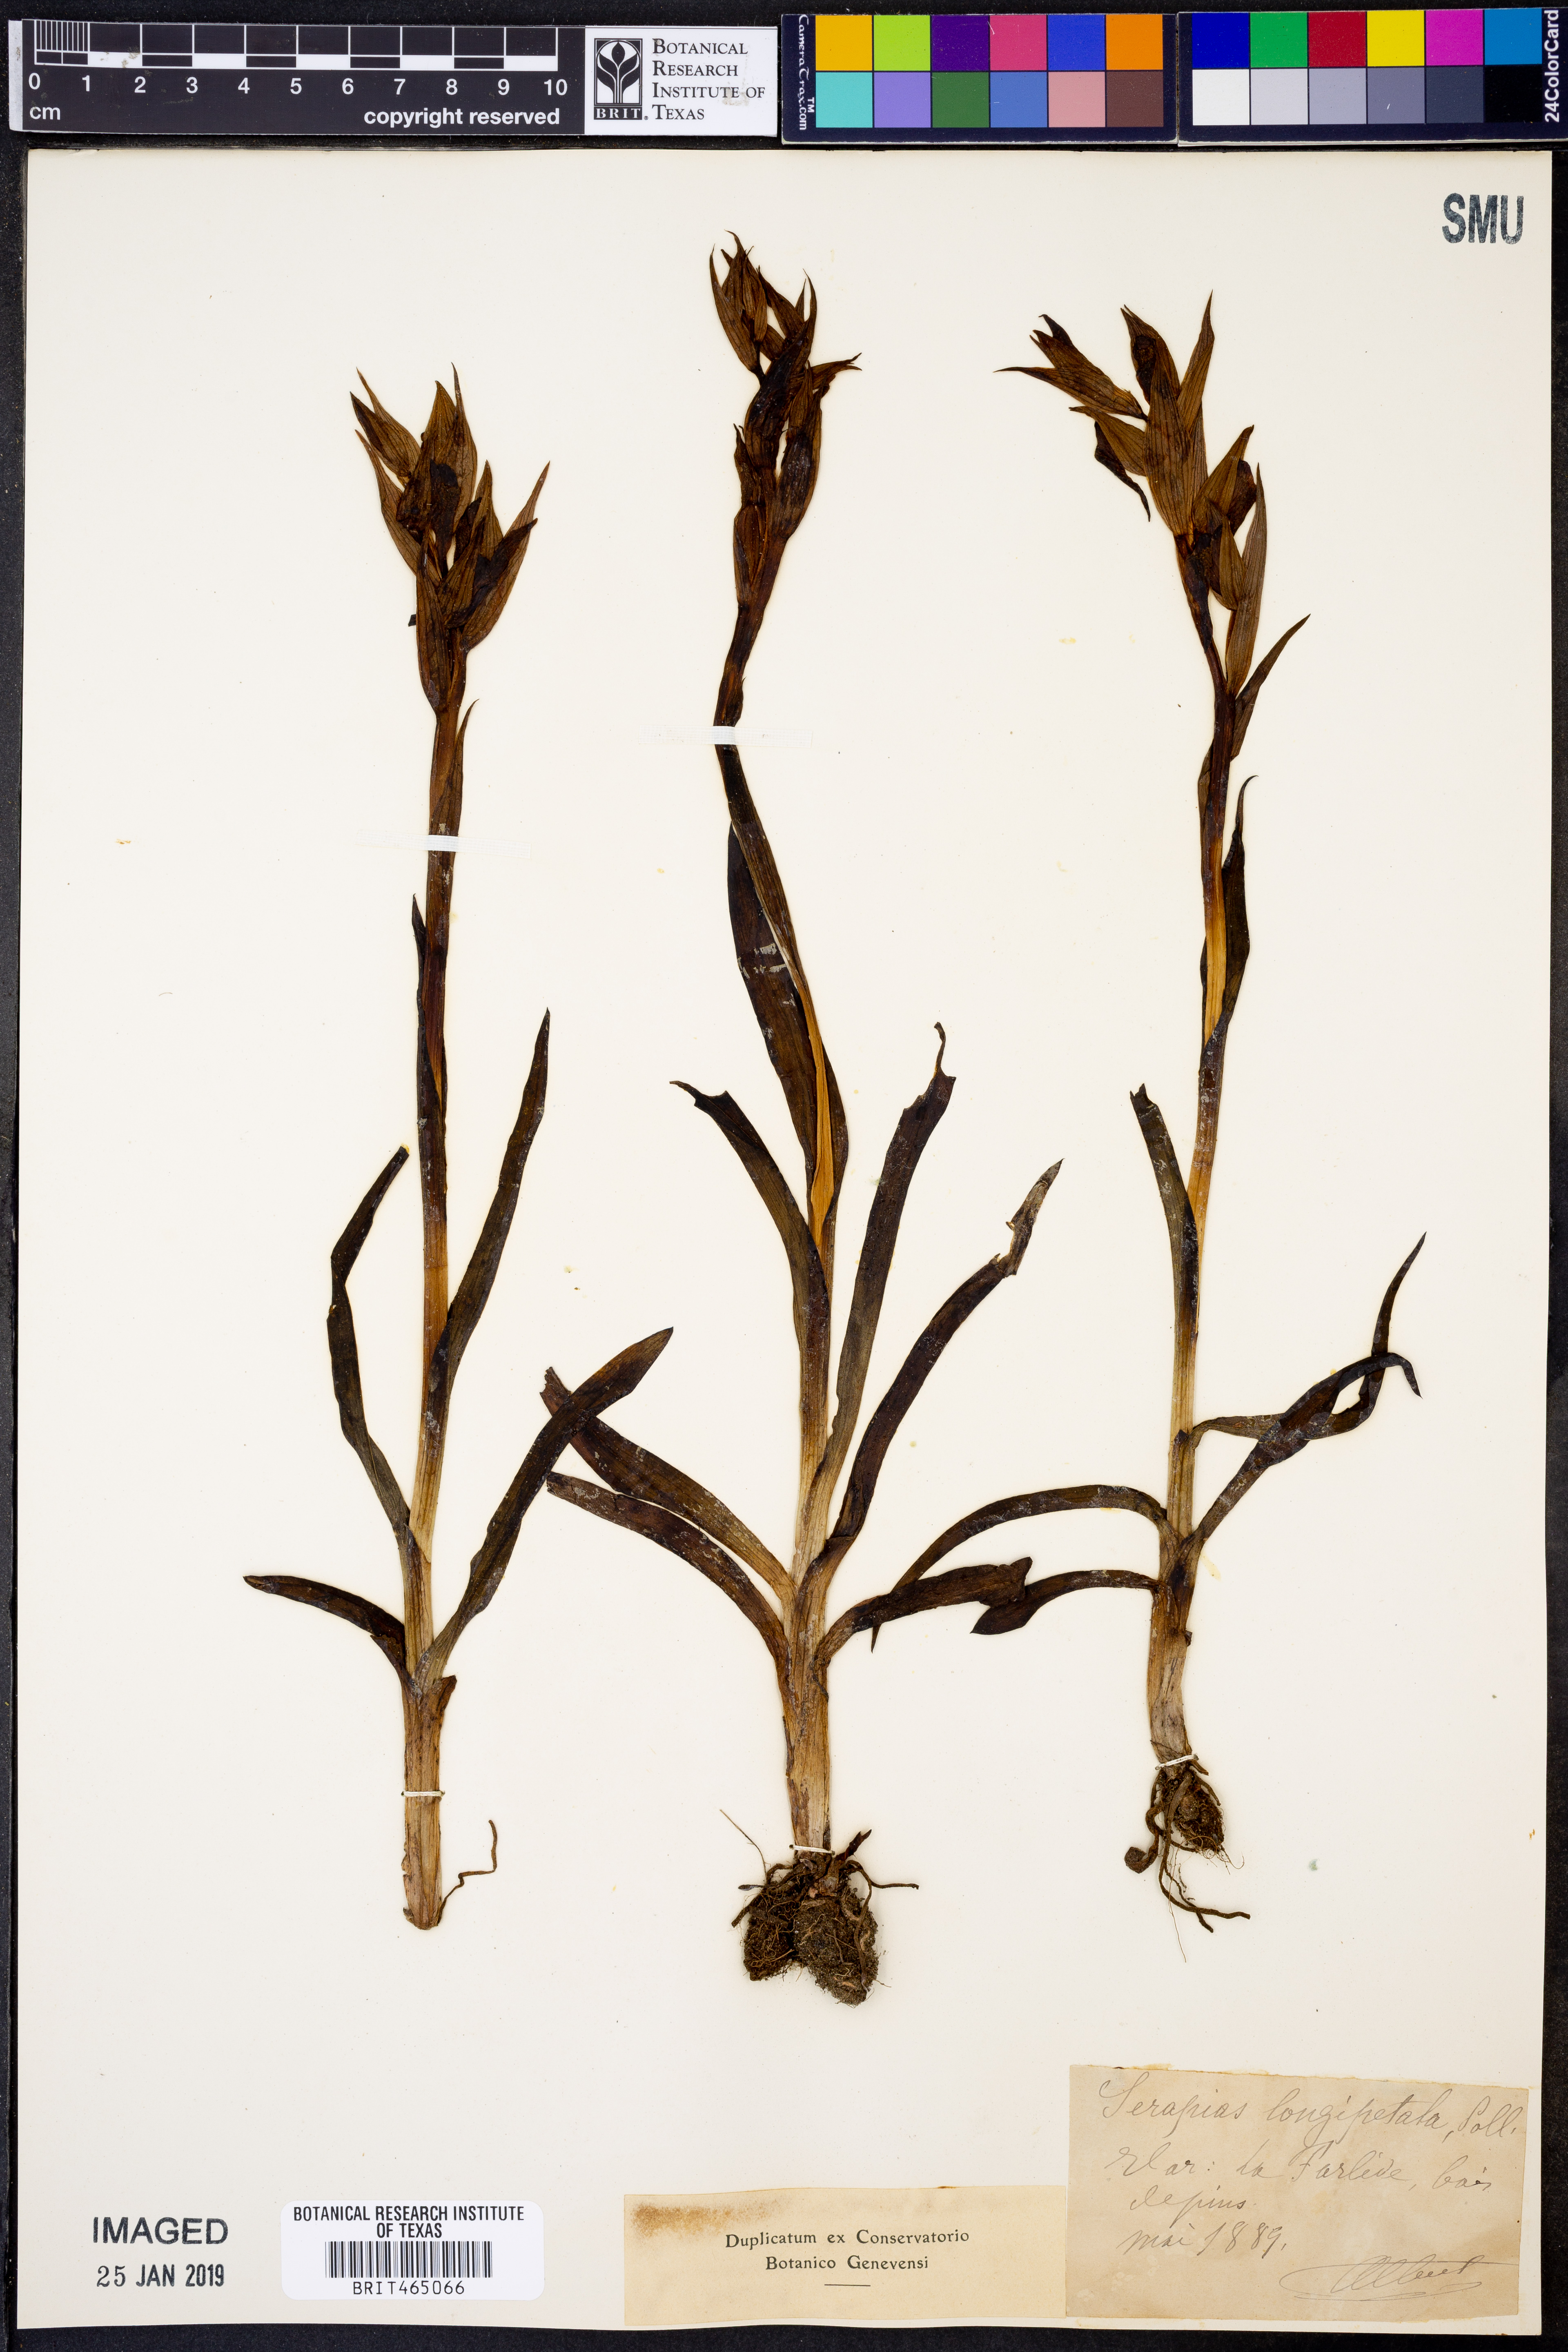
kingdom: Plantae
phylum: Tracheophyta
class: Liliopsida
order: Asparagales
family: Orchidaceae
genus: Serapias
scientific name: Serapias vomeracea
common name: Long-lipped tongue-orchid
